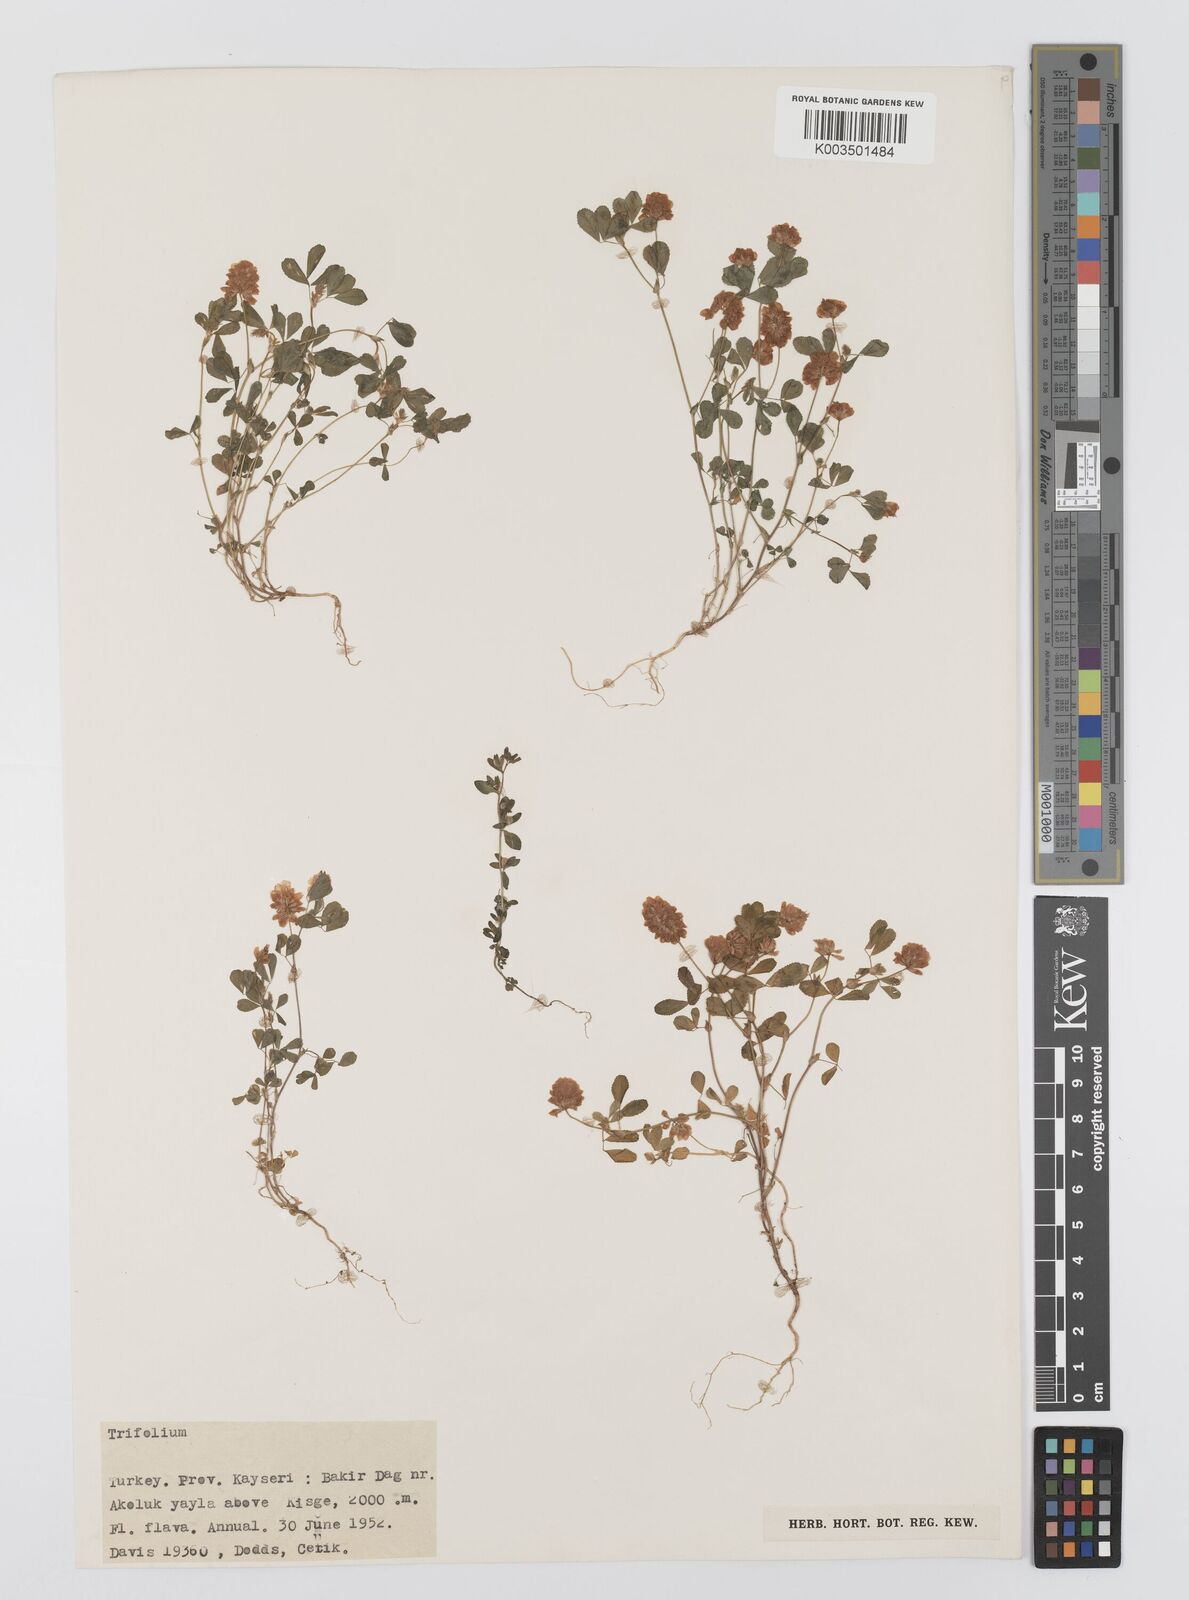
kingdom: Plantae
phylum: Tracheophyta
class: Magnoliopsida
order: Fabales
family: Fabaceae
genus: Trifolium
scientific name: Trifolium campestre
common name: Field clover
